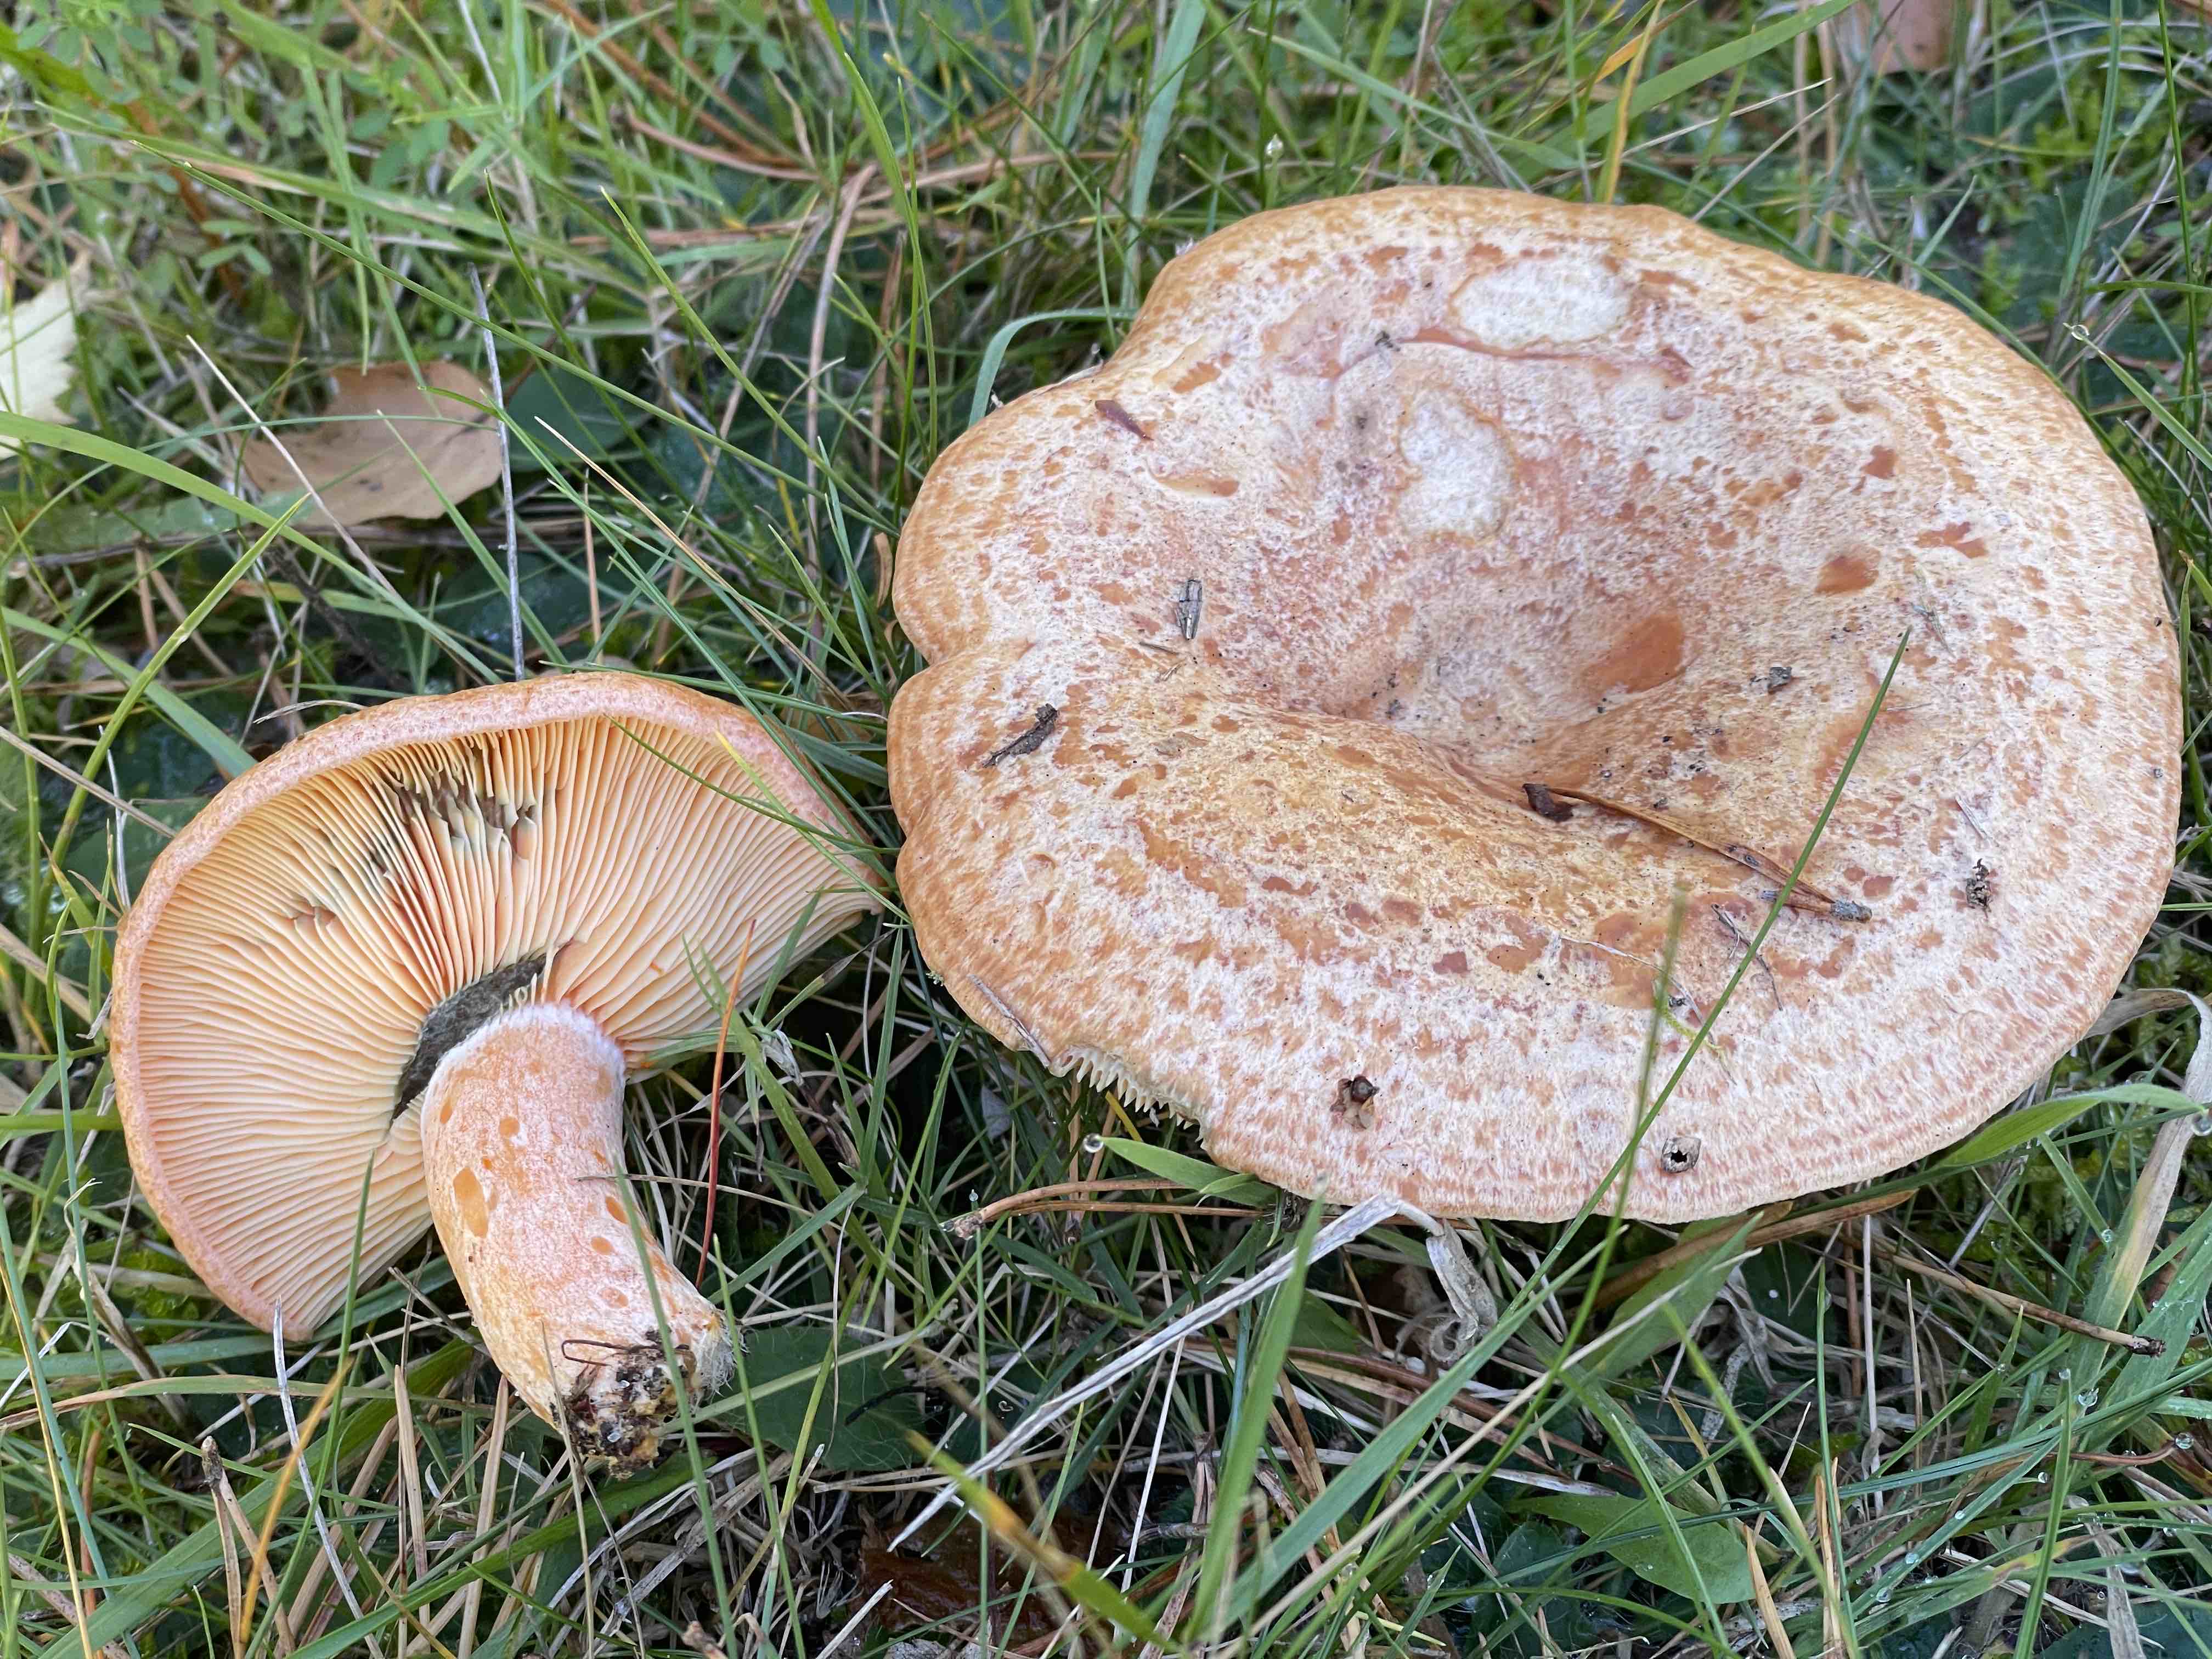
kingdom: Fungi
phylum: Basidiomycota
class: Agaricomycetes
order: Russulales
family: Russulaceae
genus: Lactarius
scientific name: Lactarius deliciosus
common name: velsmagende mælkehat
